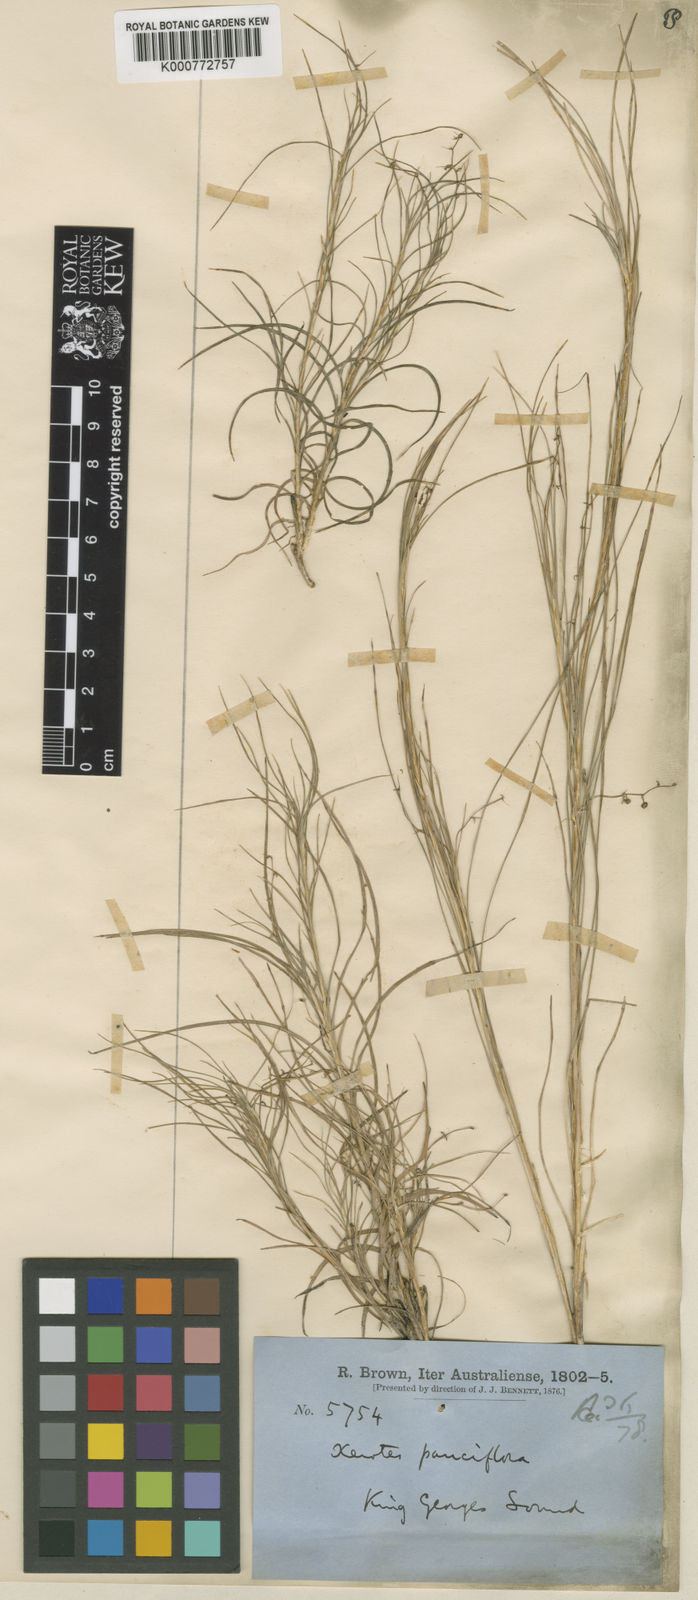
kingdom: Plantae
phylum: Tracheophyta
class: Liliopsida
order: Asparagales
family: Asparagaceae
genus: Lomandra
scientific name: Lomandra pauciflora
